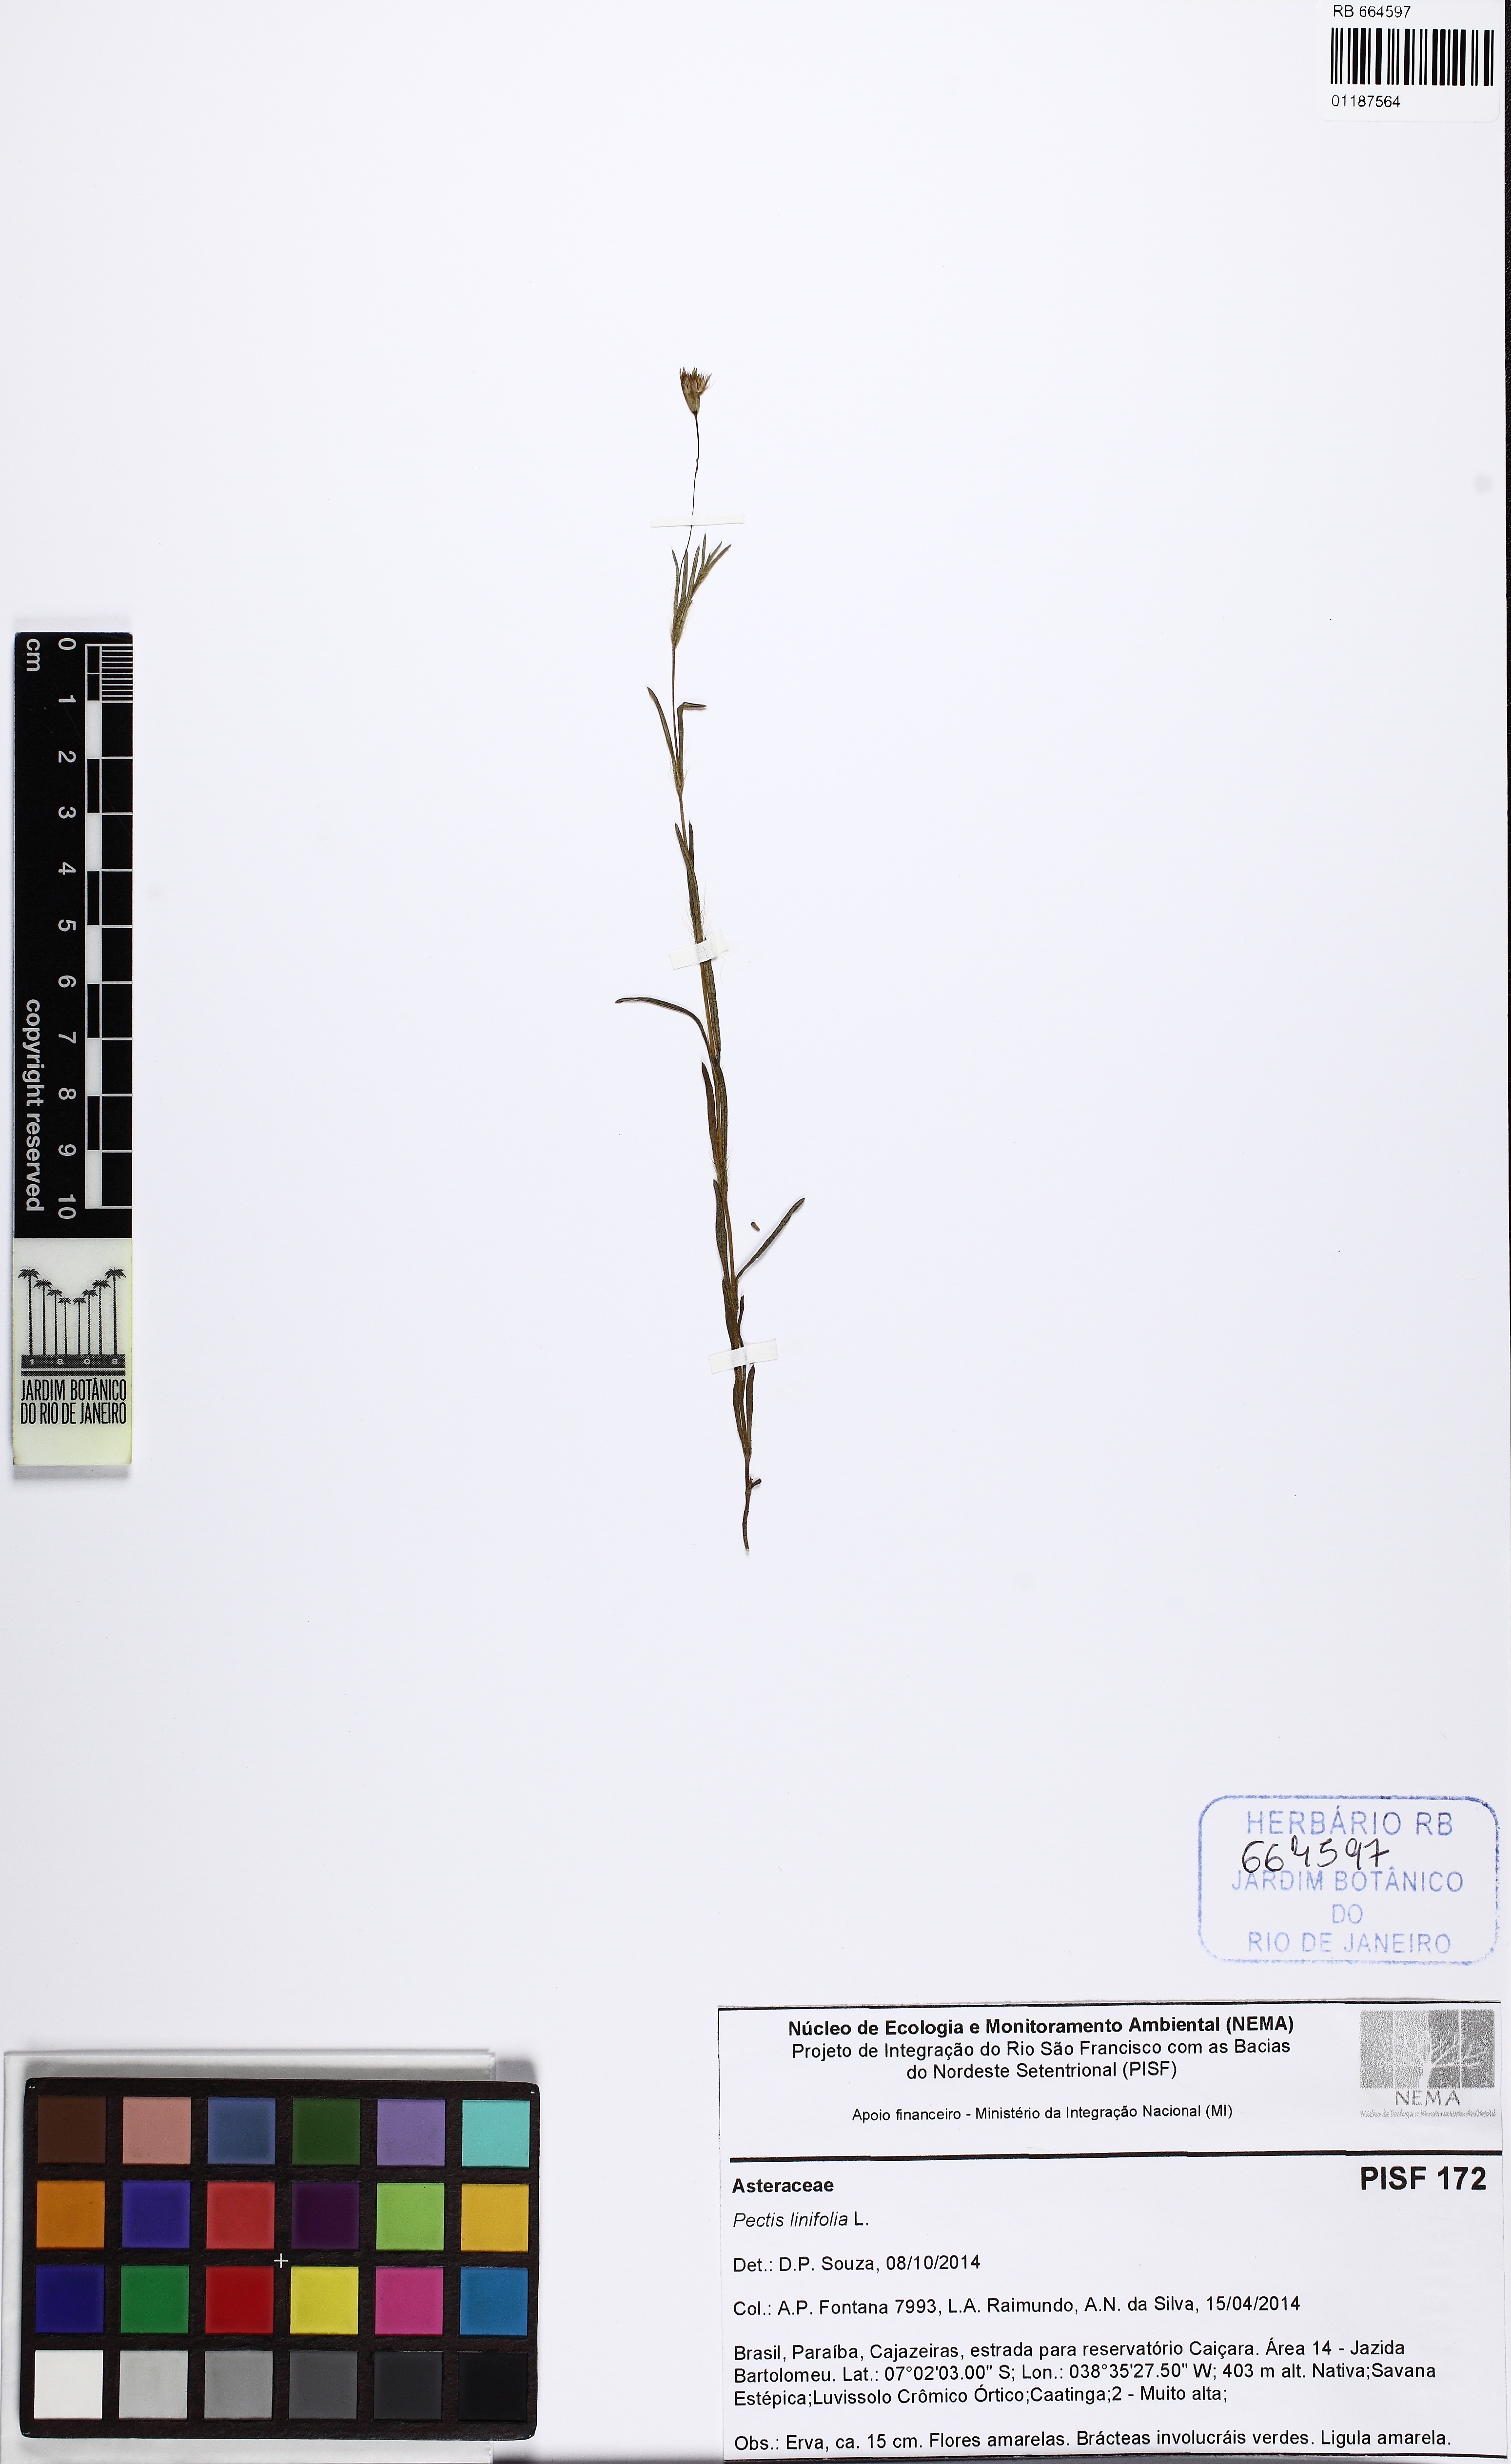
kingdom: Plantae
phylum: Tracheophyta
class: Magnoliopsida
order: Asterales
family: Asteraceae
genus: Pectis
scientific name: Pectis linifolia
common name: Romero macho
